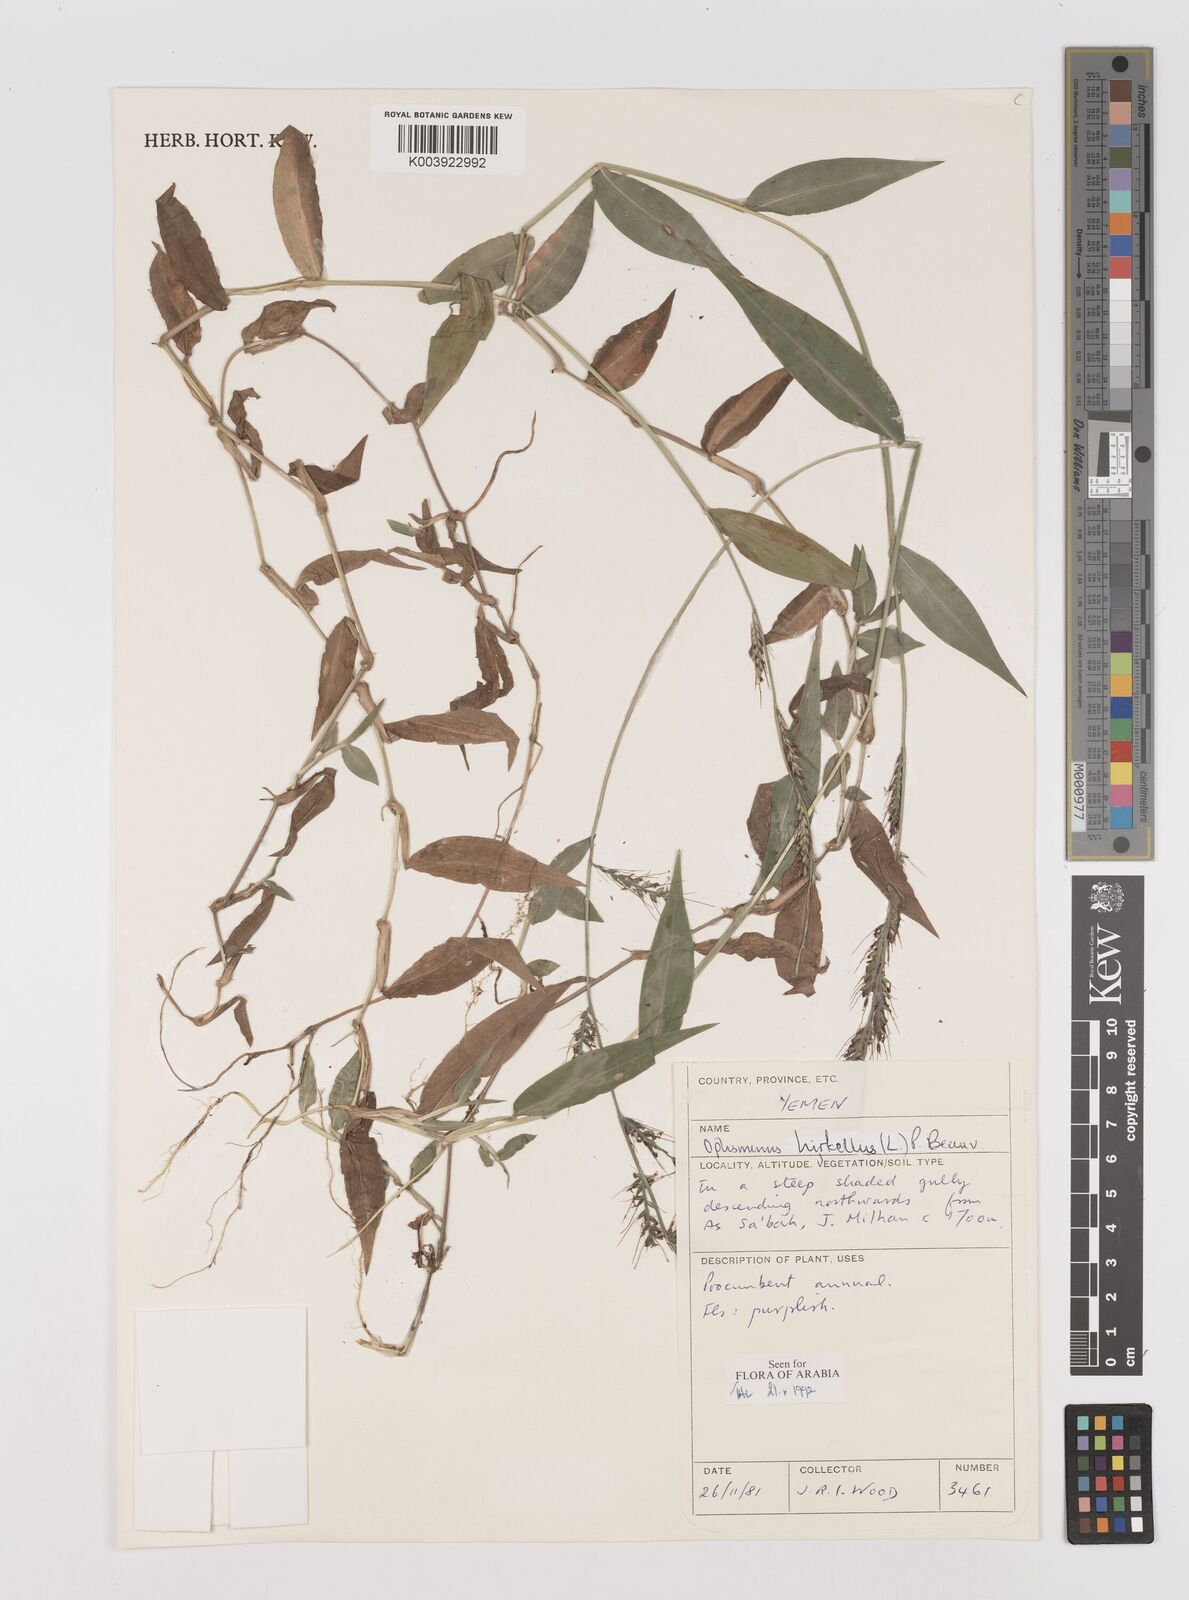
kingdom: Plantae
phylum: Tracheophyta
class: Liliopsida
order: Poales
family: Poaceae
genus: Oplismenus
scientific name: Oplismenus hirtellus
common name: Basketgrass
